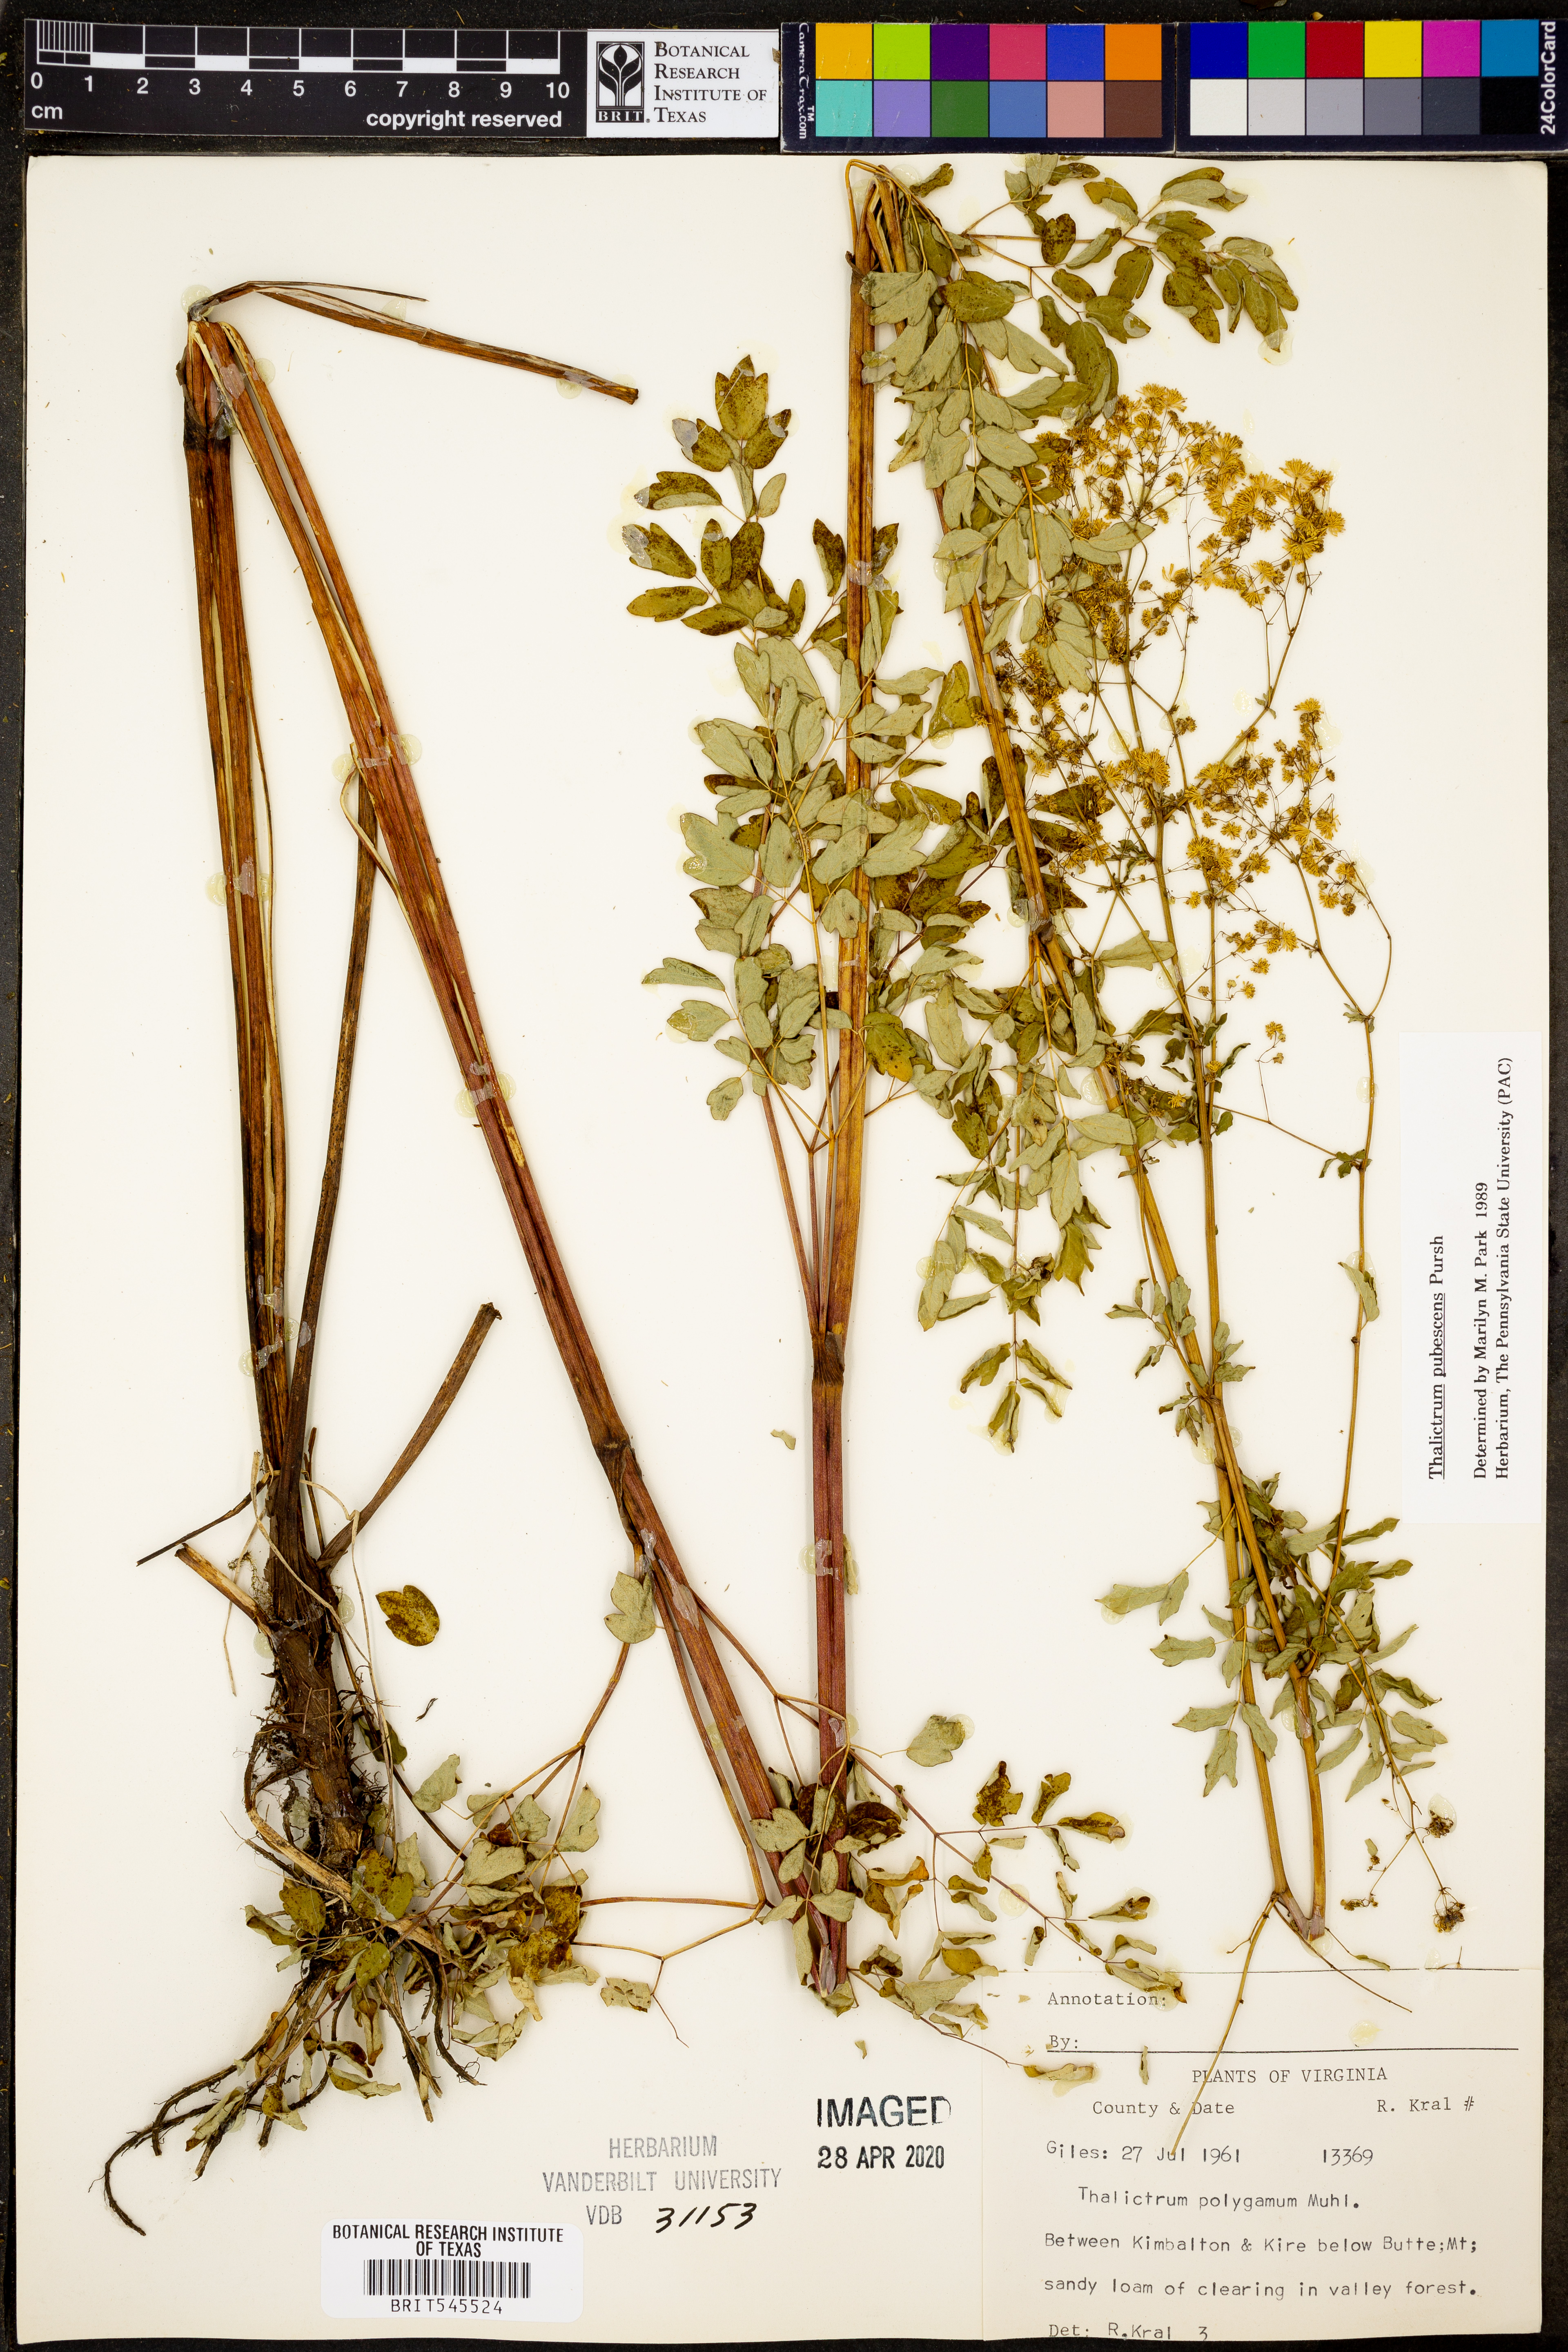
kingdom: Plantae
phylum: Tracheophyta
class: Magnoliopsida
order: Ranunculales
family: Ranunculaceae
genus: Thalictrum
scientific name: Thalictrum pubescens
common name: King-of-the-meadow
